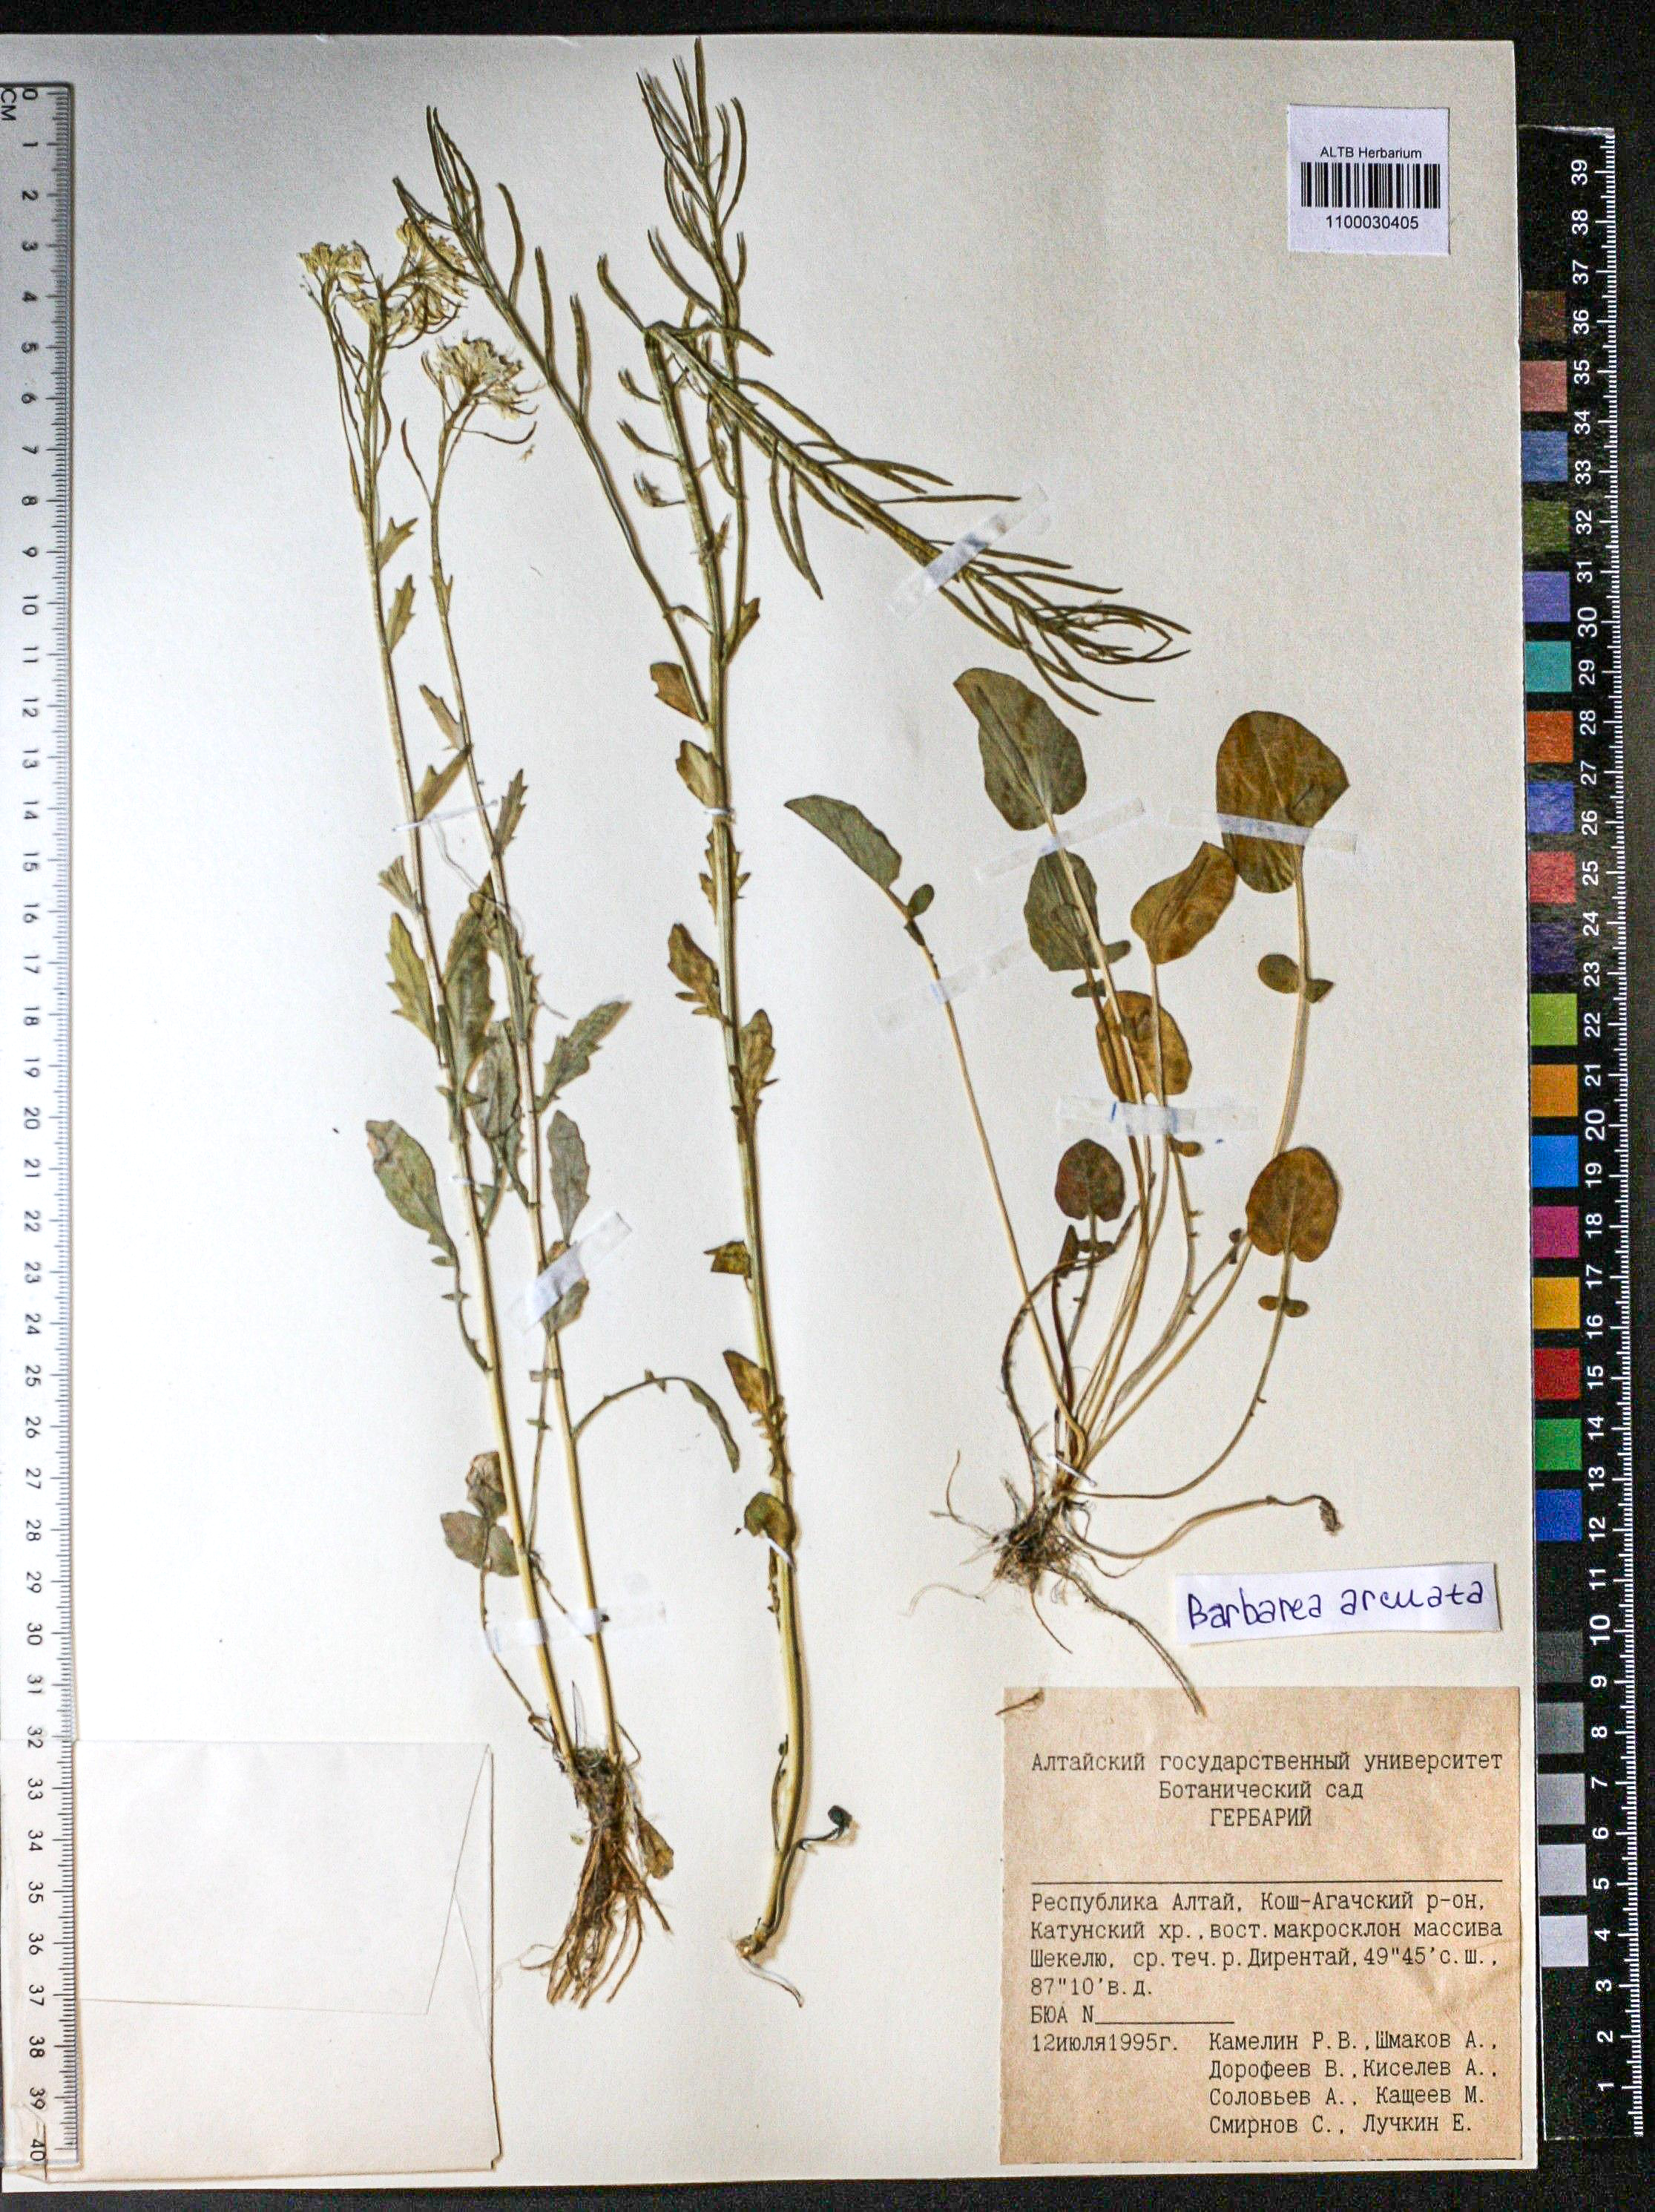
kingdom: Plantae
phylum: Tracheophyta
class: Magnoliopsida
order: Brassicales
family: Brassicaceae
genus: Barbarea
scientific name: Barbarea vulgaris
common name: Cressy-greens
